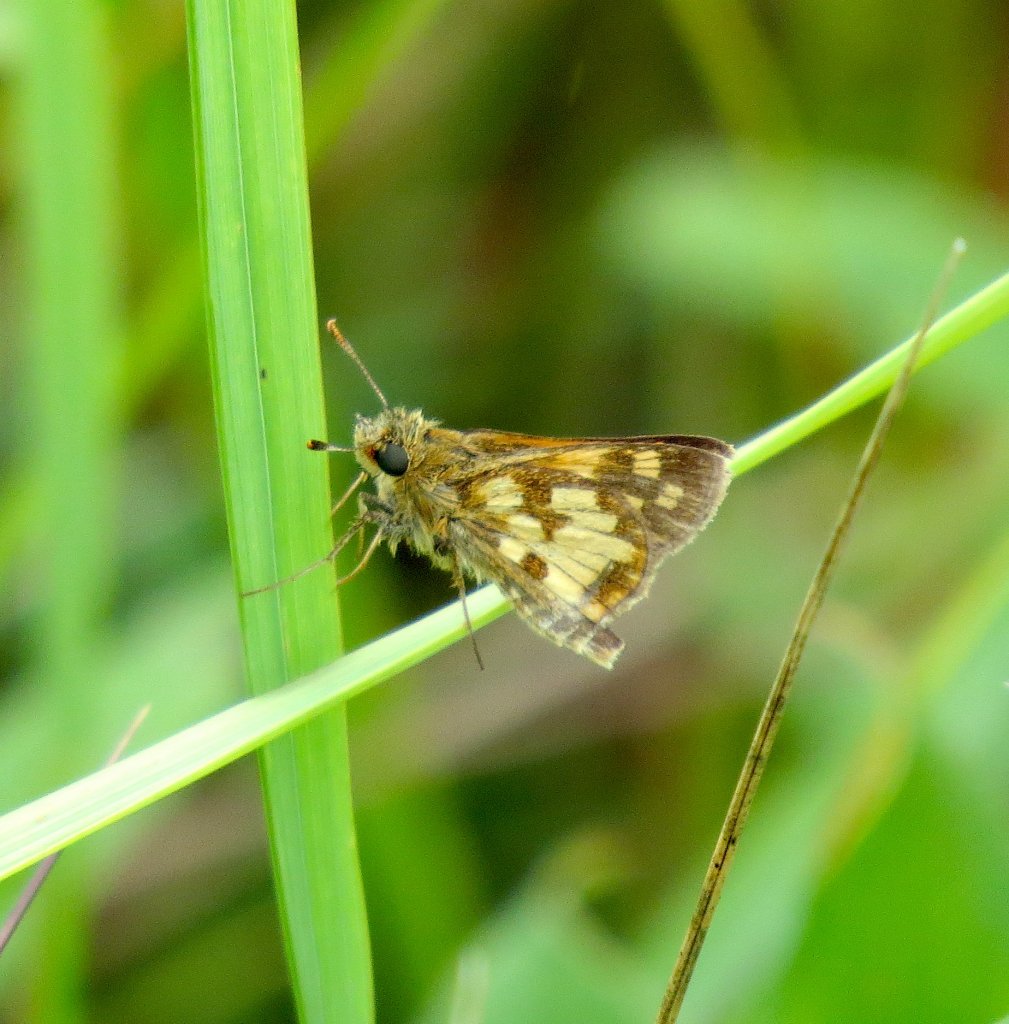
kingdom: Animalia
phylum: Arthropoda
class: Insecta
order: Lepidoptera
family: Hesperiidae
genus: Polites
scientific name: Polites coras
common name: Peck's Skipper
